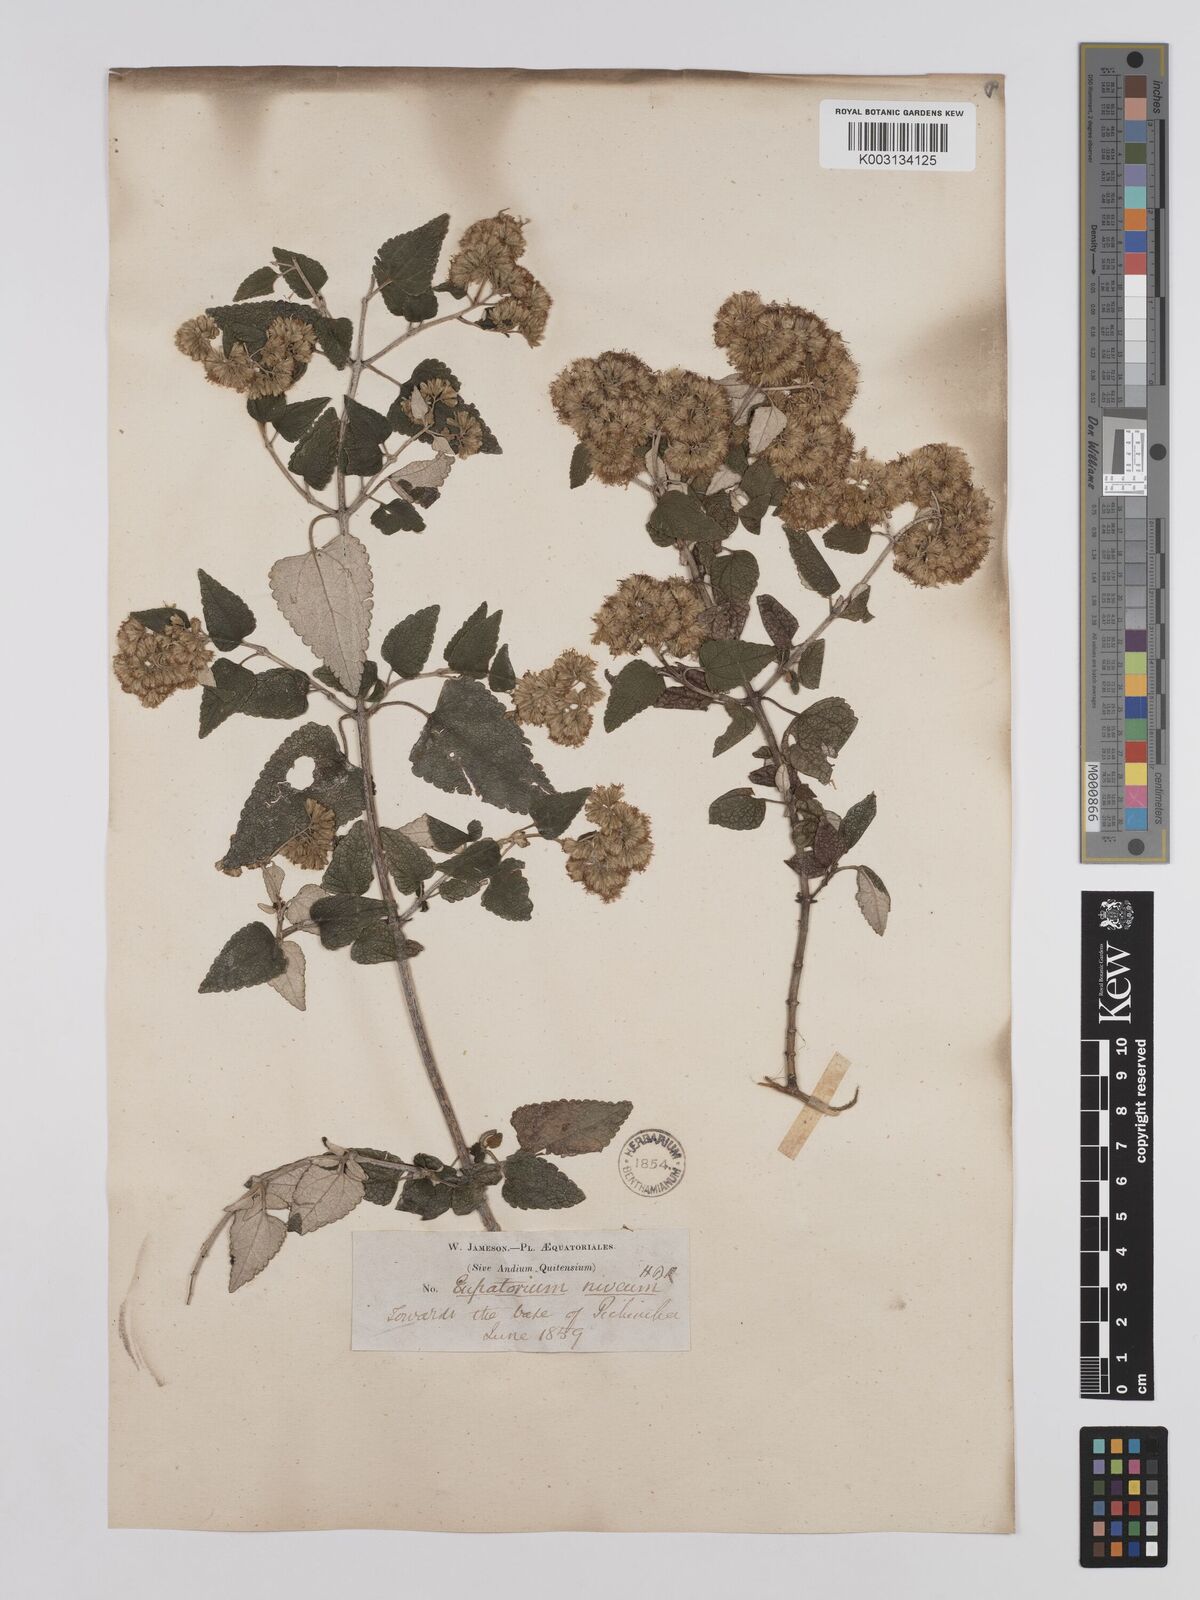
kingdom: Plantae
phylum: Tracheophyta
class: Magnoliopsida
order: Asterales
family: Asteraceae
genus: Cronquistianthus
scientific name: Cronquistianthus leucophyllus
